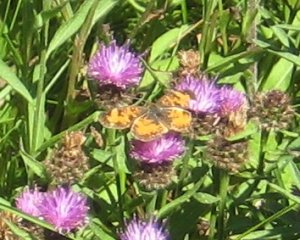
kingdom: Animalia
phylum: Arthropoda
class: Insecta
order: Lepidoptera
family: Nymphalidae
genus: Phyciodes
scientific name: Phyciodes tharos
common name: Northern Crescent
